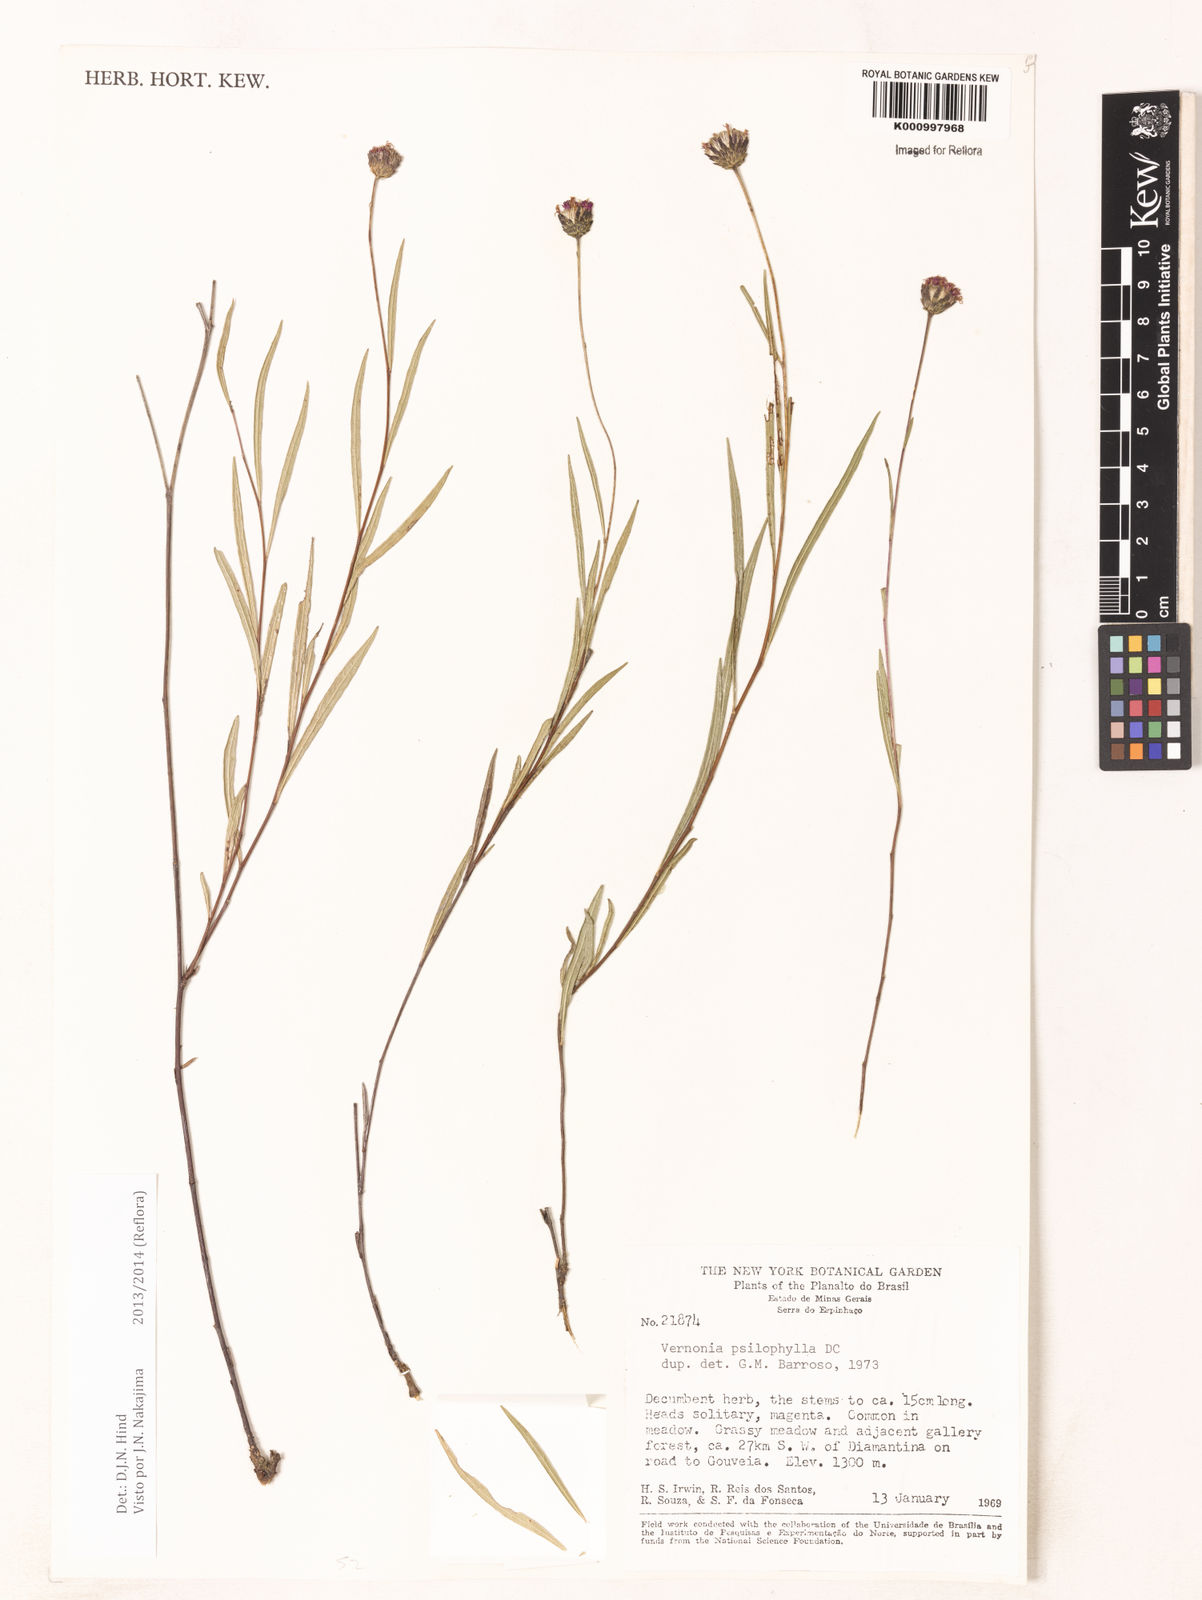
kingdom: Plantae
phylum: Tracheophyta
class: Magnoliopsida
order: Asterales
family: Asteraceae
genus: Lessingianthus
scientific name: Lessingianthus brevifolius
